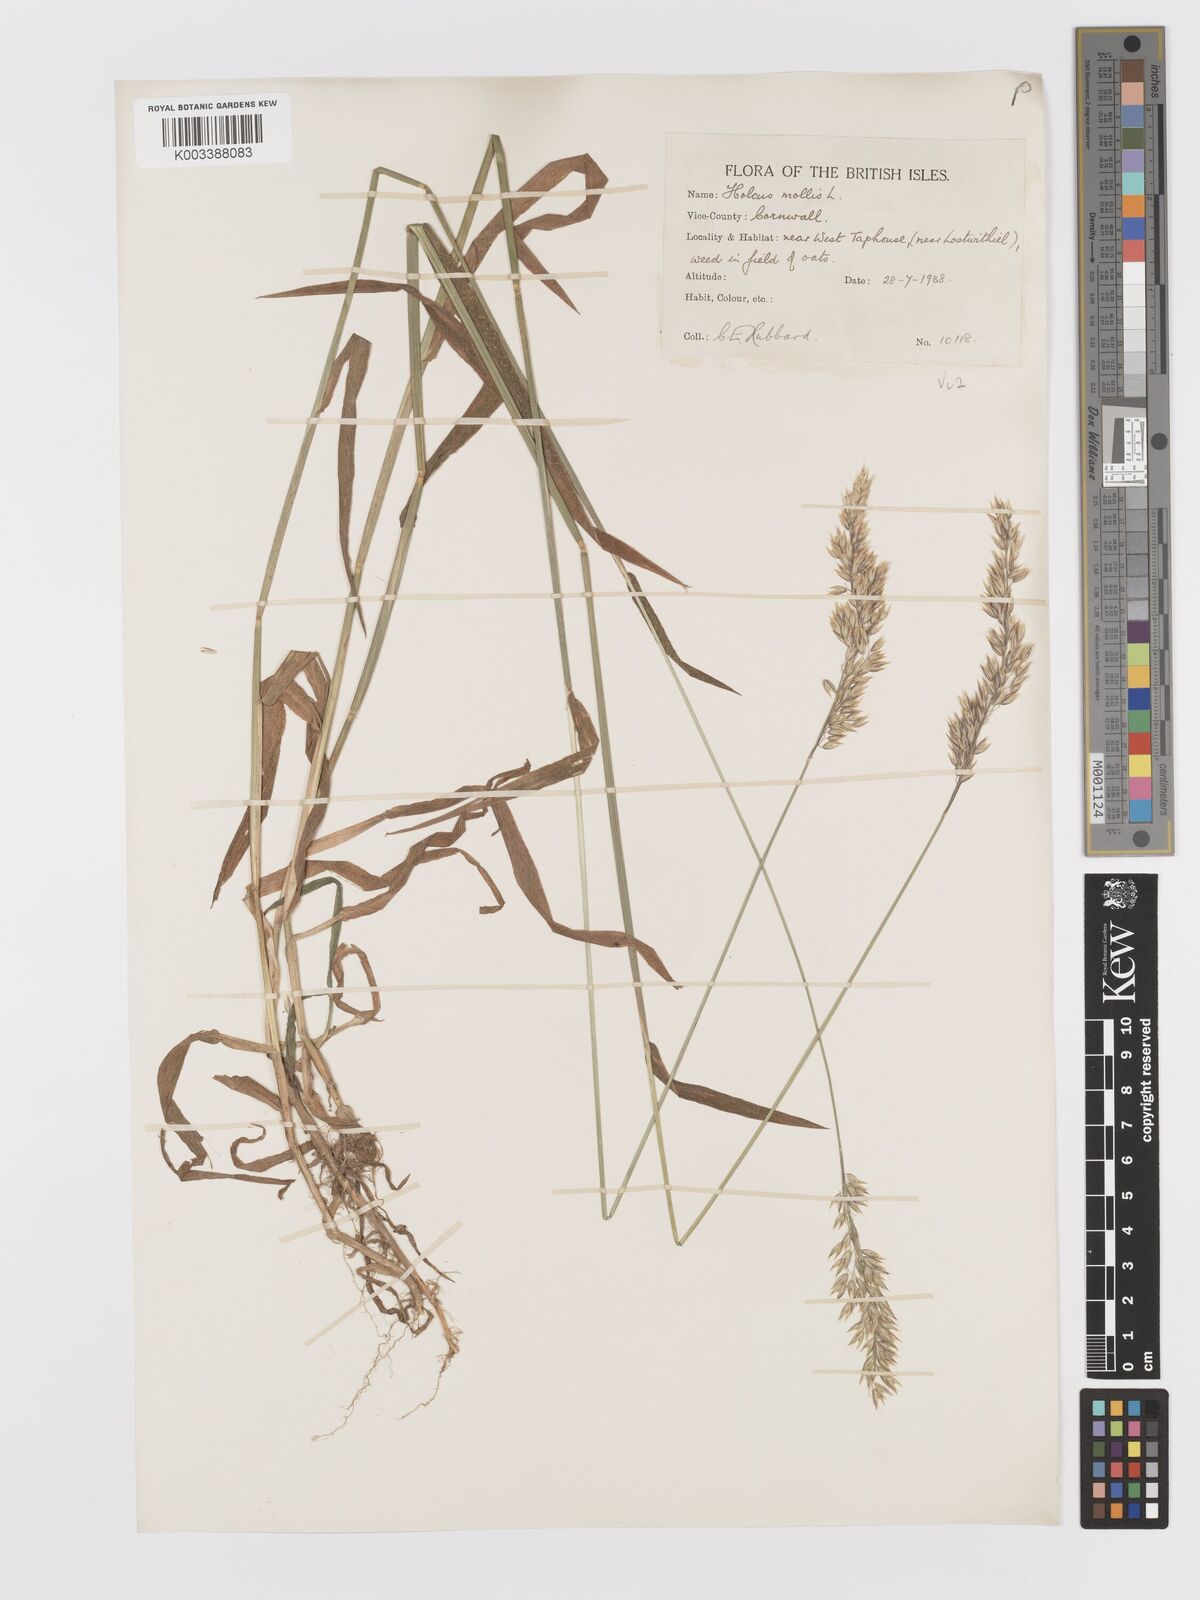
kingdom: Plantae
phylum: Tracheophyta
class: Liliopsida
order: Poales
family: Poaceae
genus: Holcus
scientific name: Holcus mollis
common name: Creeping velvetgrass
